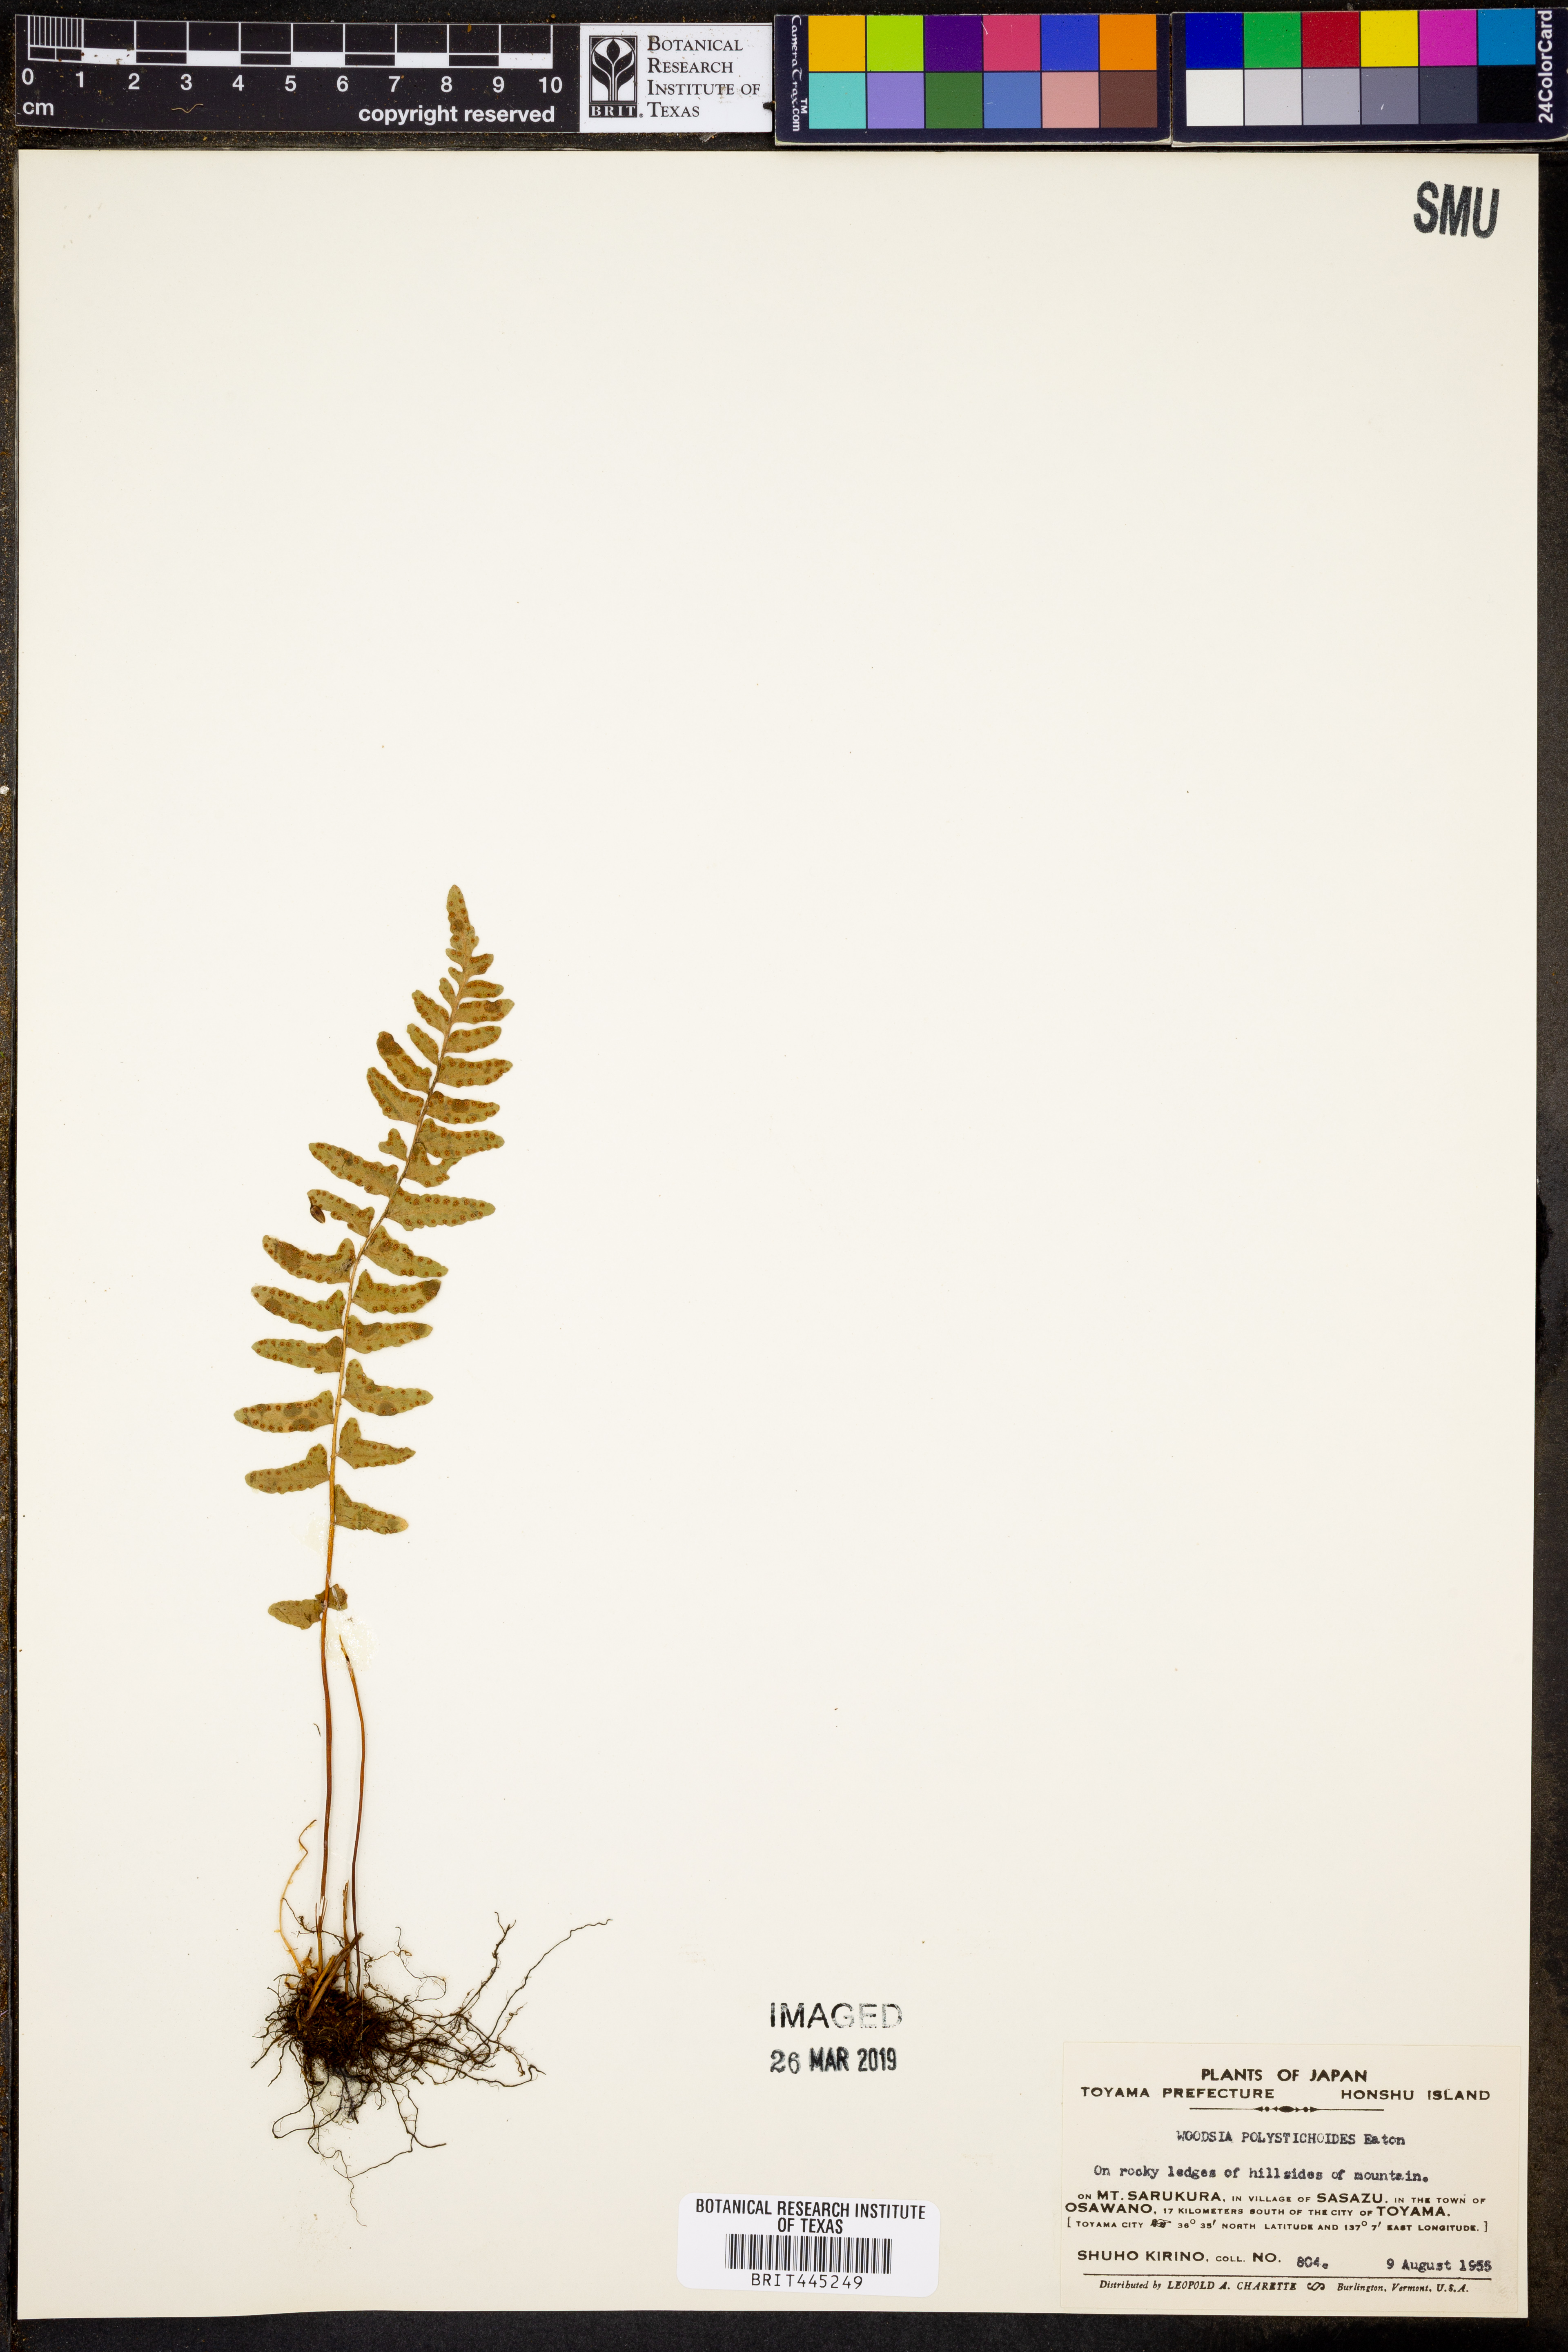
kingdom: Plantae
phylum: Tracheophyta
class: Polypodiopsida
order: Polypodiales
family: Woodsiaceae
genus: Woodsia
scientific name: Woodsia polystichoides
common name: Holly fern woodsia
